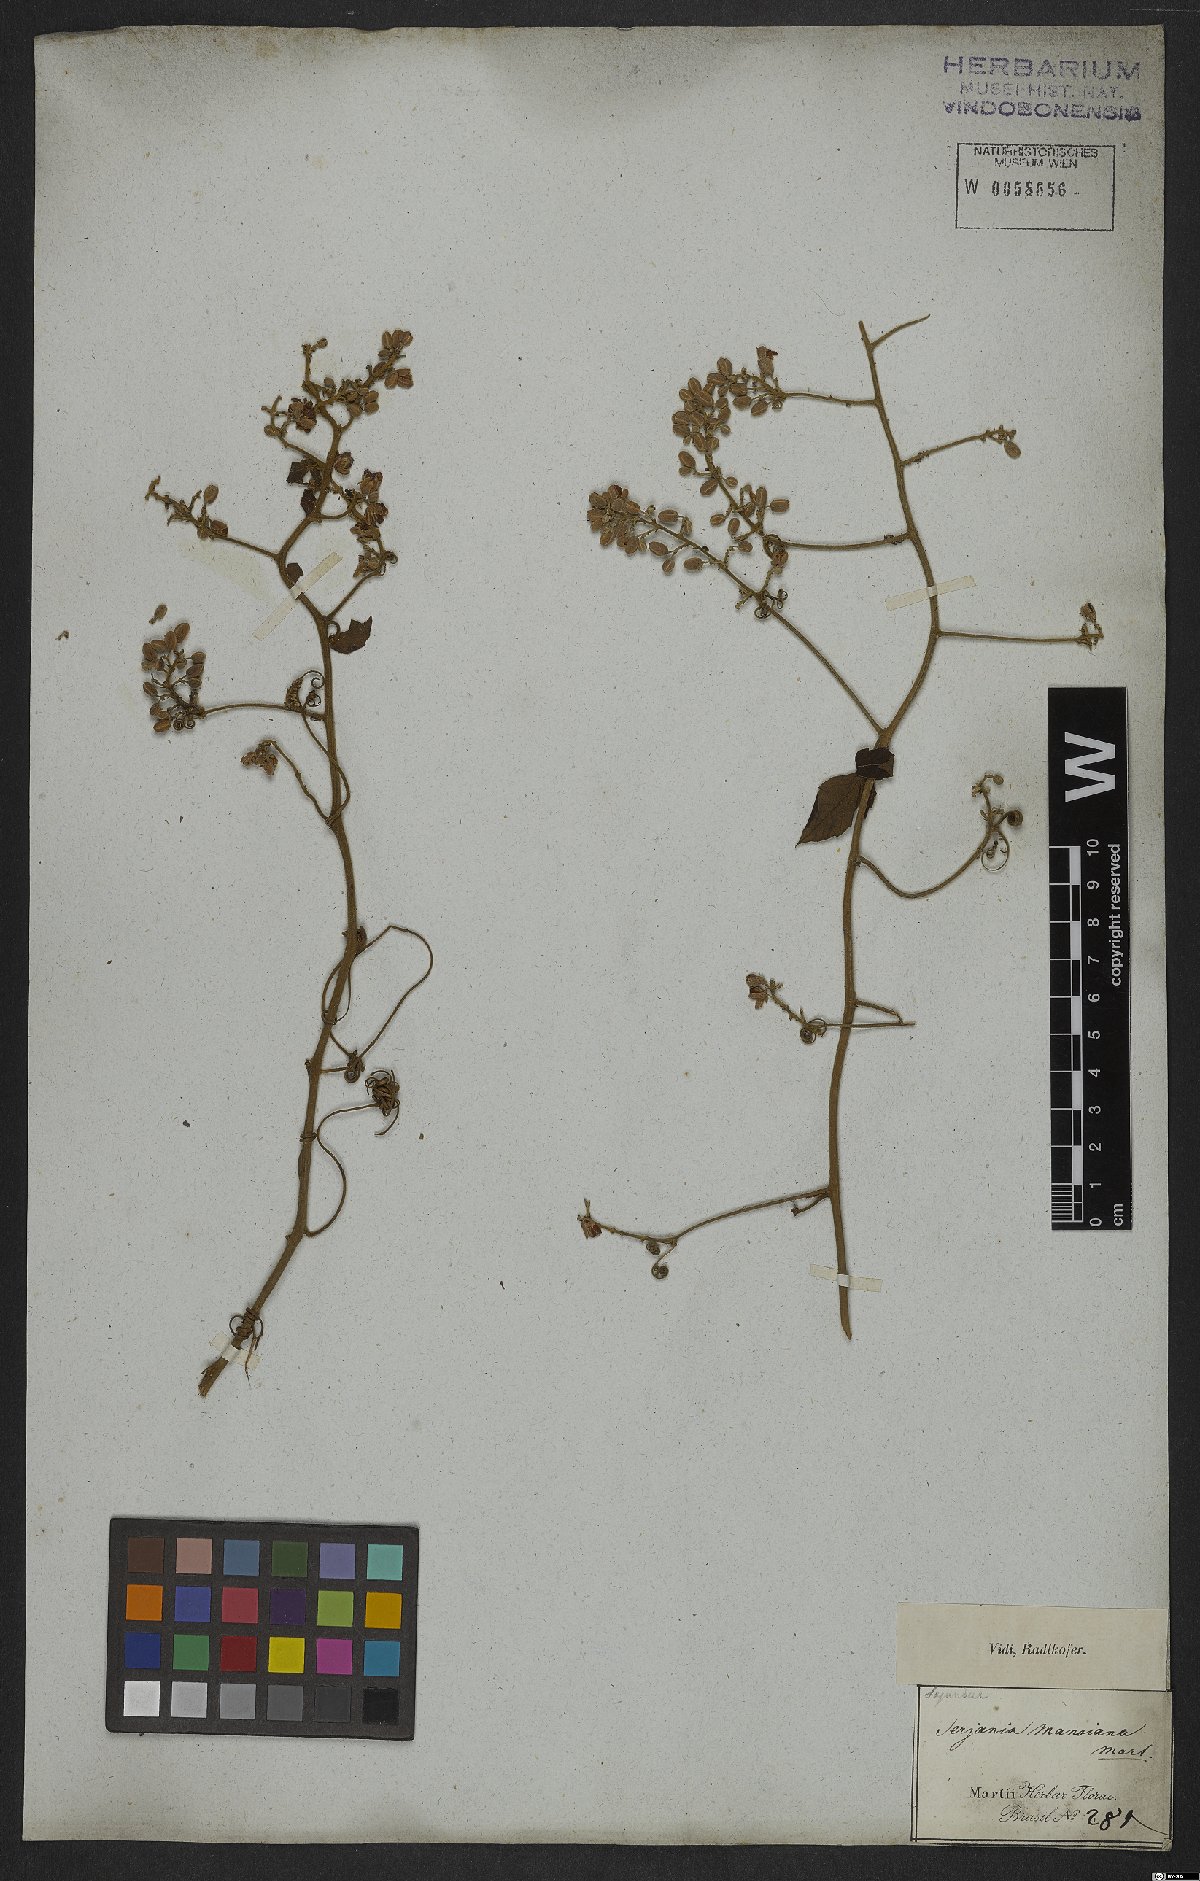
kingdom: Plantae
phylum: Tracheophyta
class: Magnoliopsida
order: Sapindales
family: Sapindaceae
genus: Serjania
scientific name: Serjania mansiana
